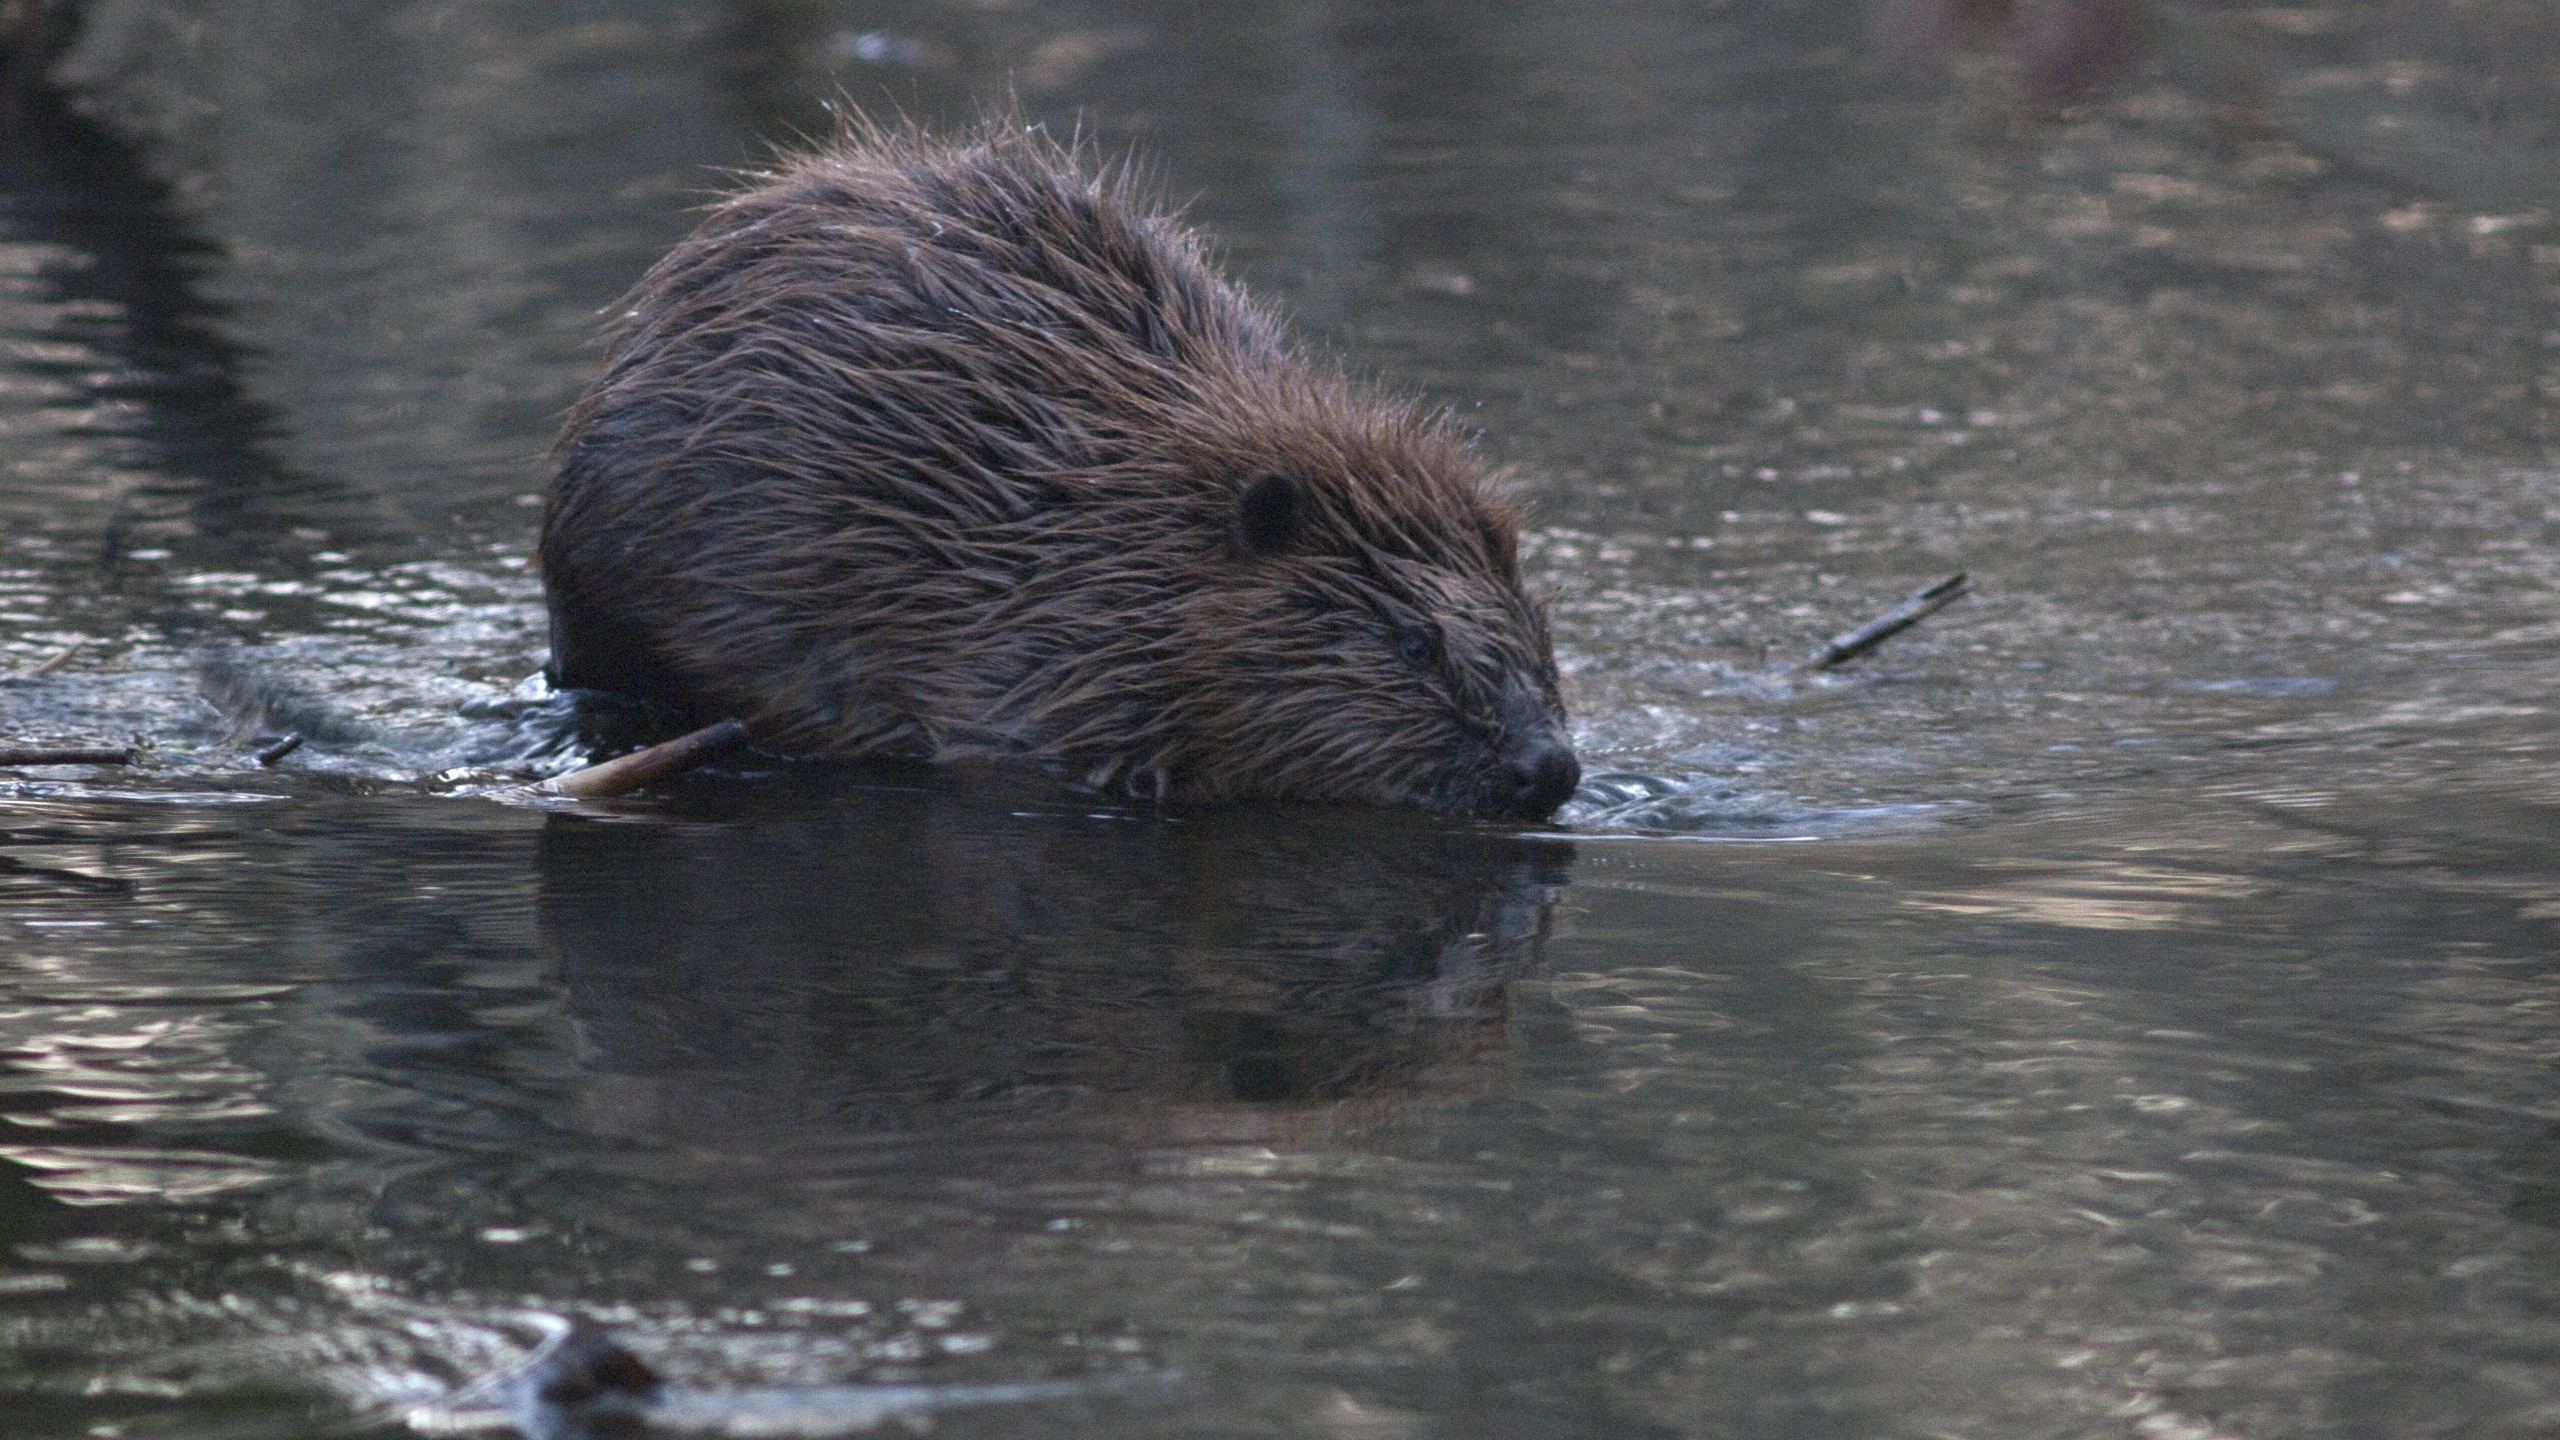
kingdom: Animalia
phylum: Chordata
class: Mammalia
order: Rodentia
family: Castoridae
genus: Castor
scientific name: Castor fiber
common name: Bæver
